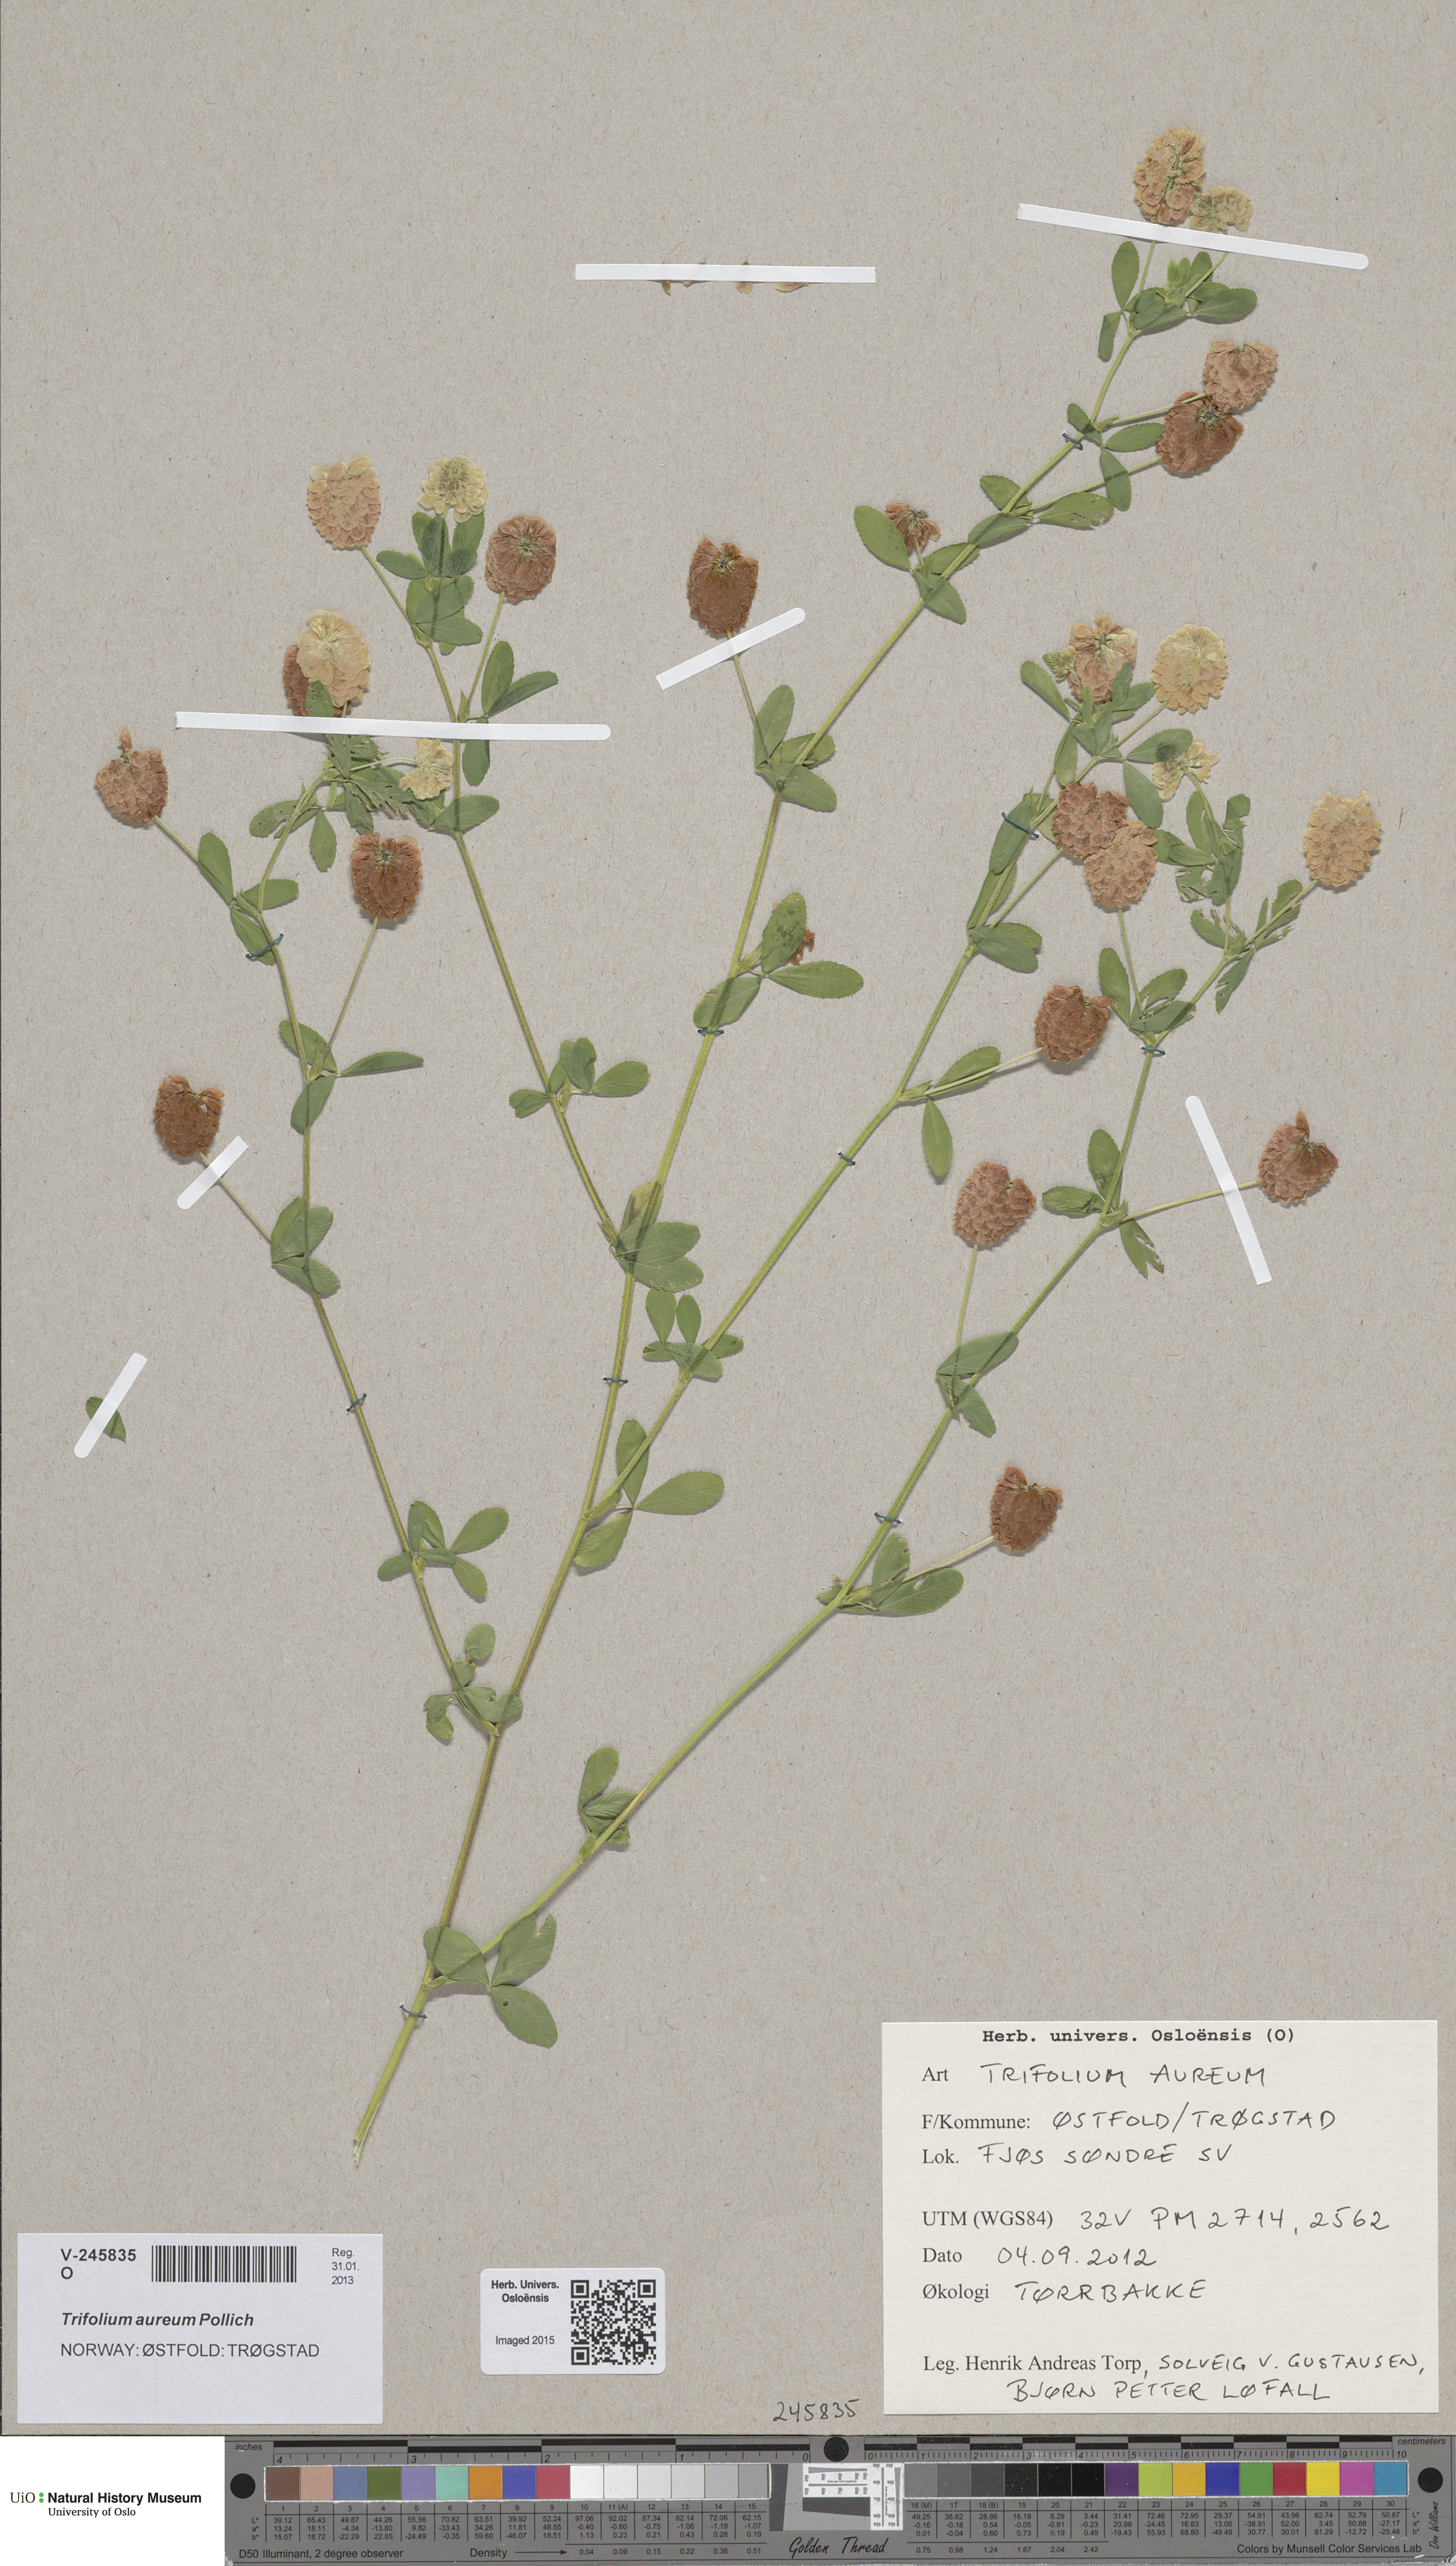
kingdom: Plantae
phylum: Tracheophyta
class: Magnoliopsida
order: Fabales
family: Fabaceae
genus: Trifolium
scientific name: Trifolium aureum
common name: Golden clover
